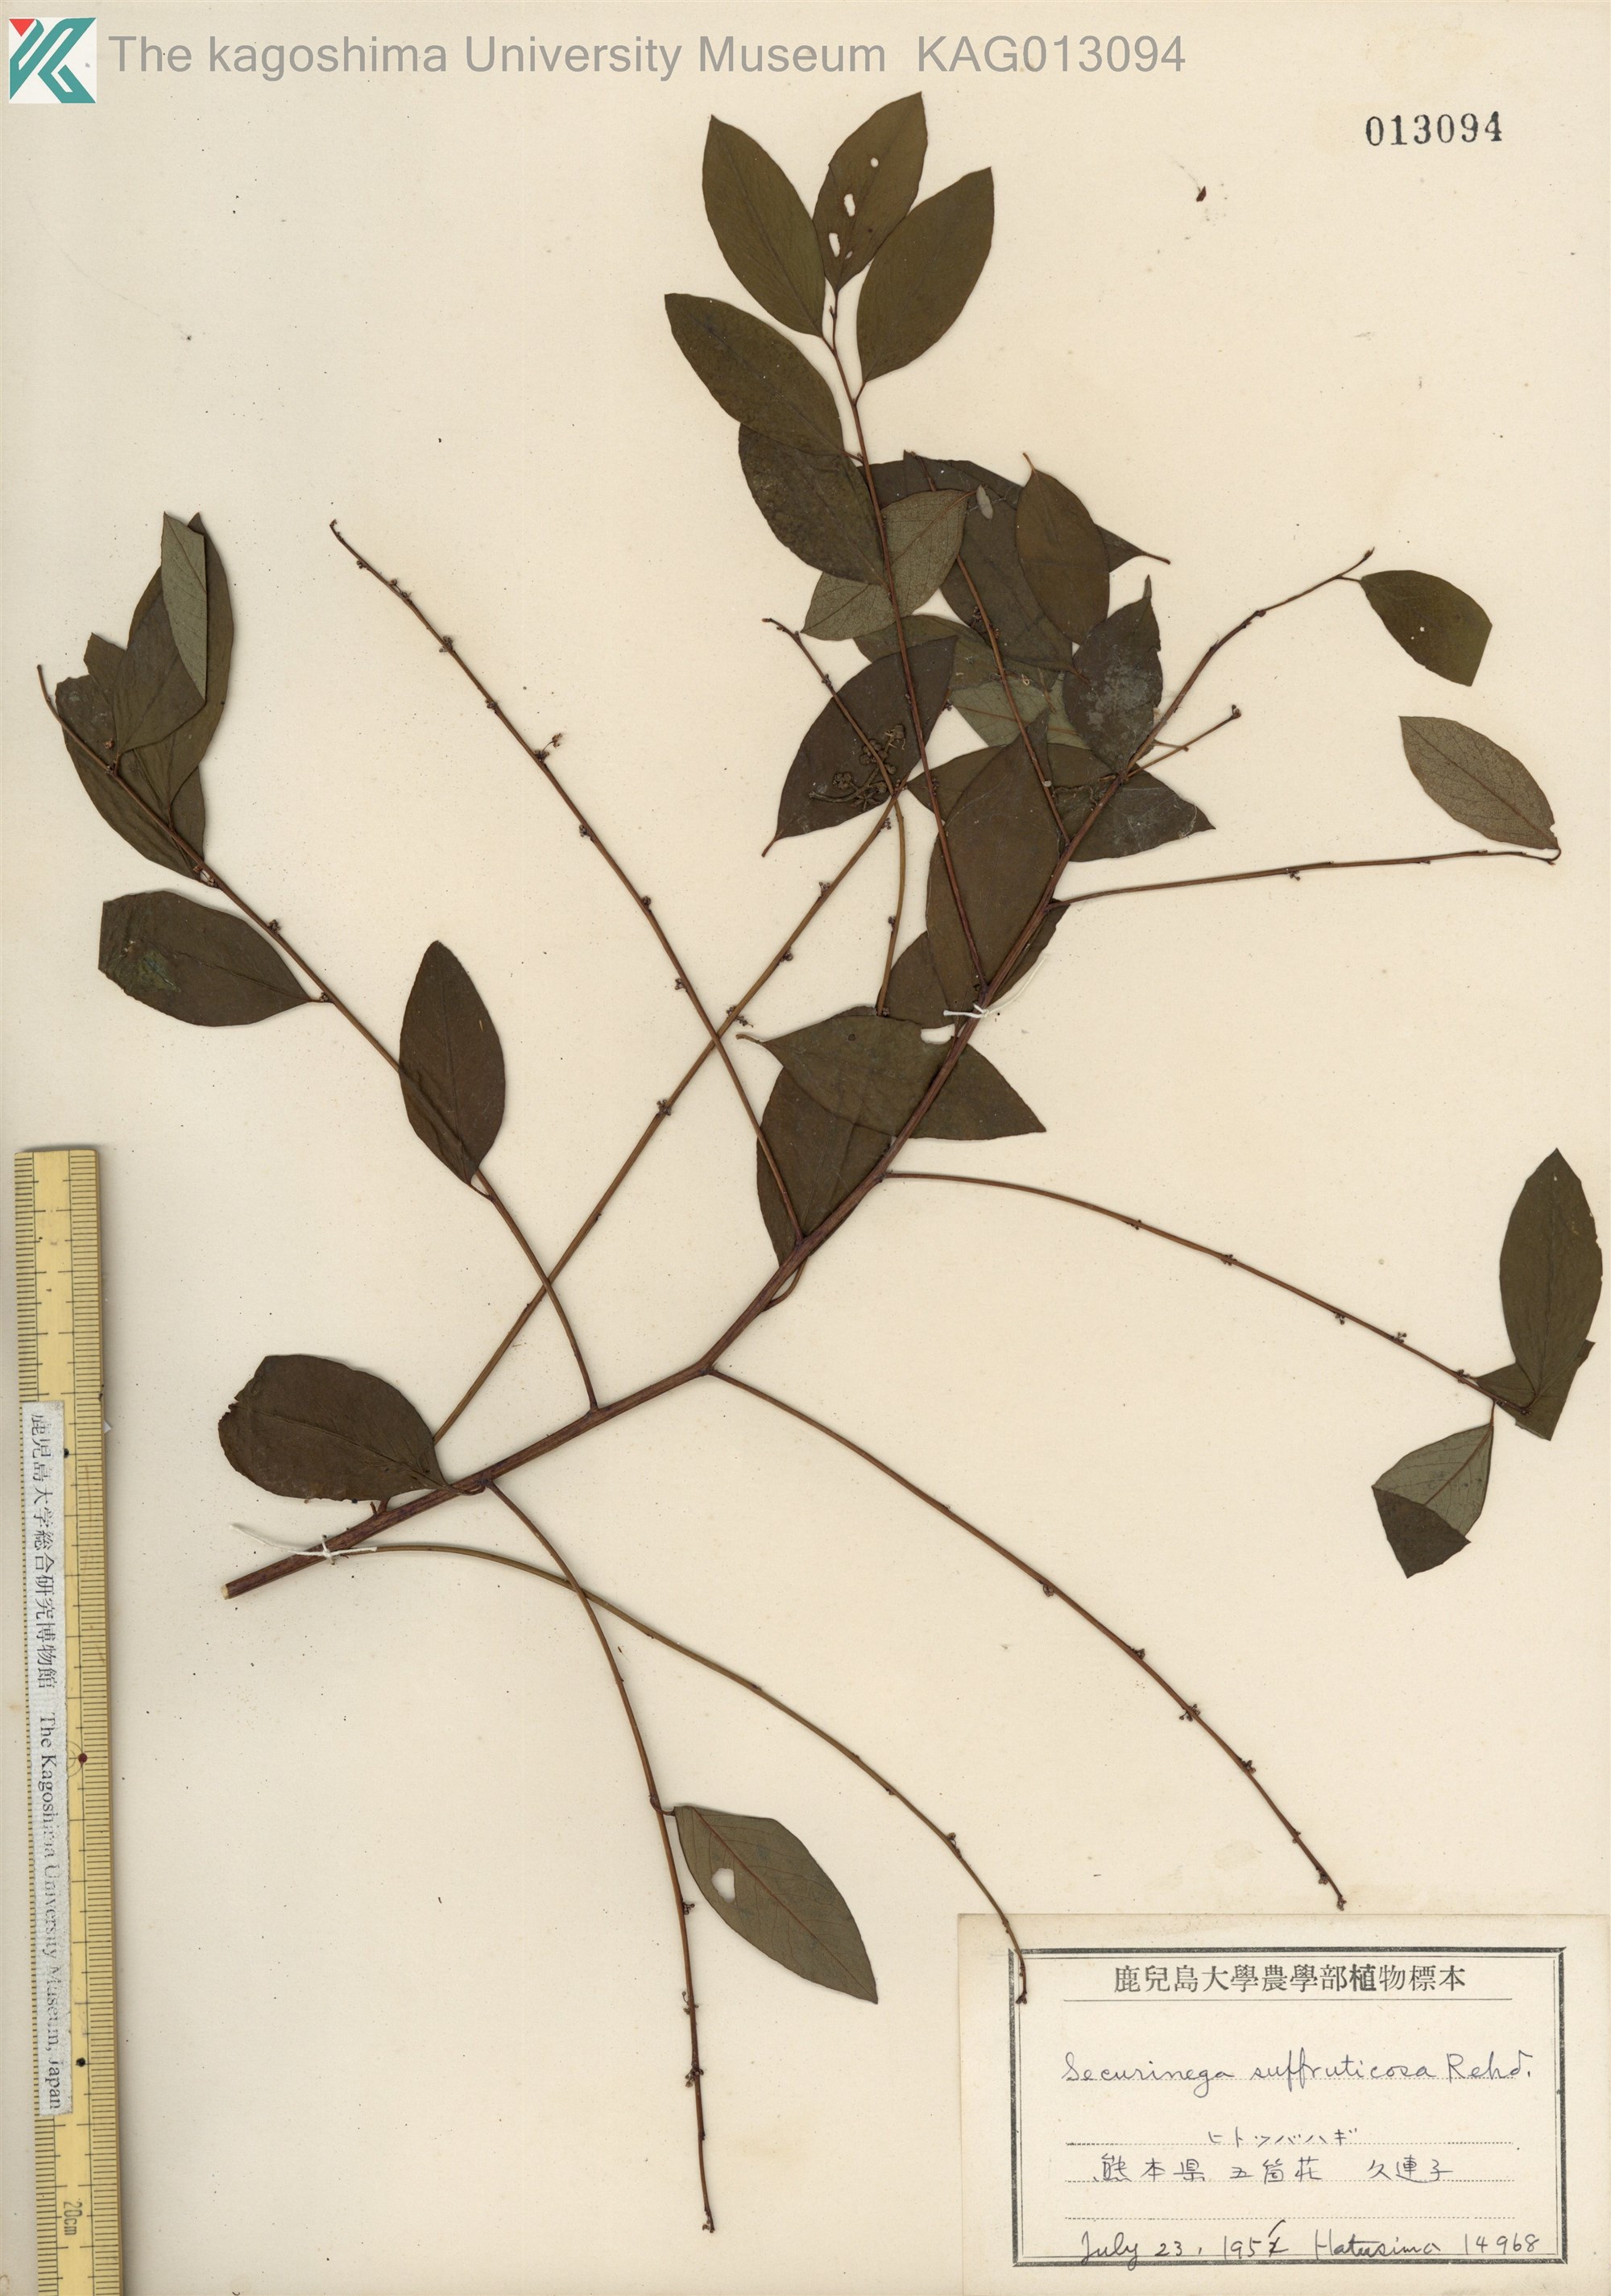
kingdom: Plantae
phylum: Tracheophyta
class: Magnoliopsida
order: Malpighiales
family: Phyllanthaceae
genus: Flueggea
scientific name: Flueggea suffruticosa
